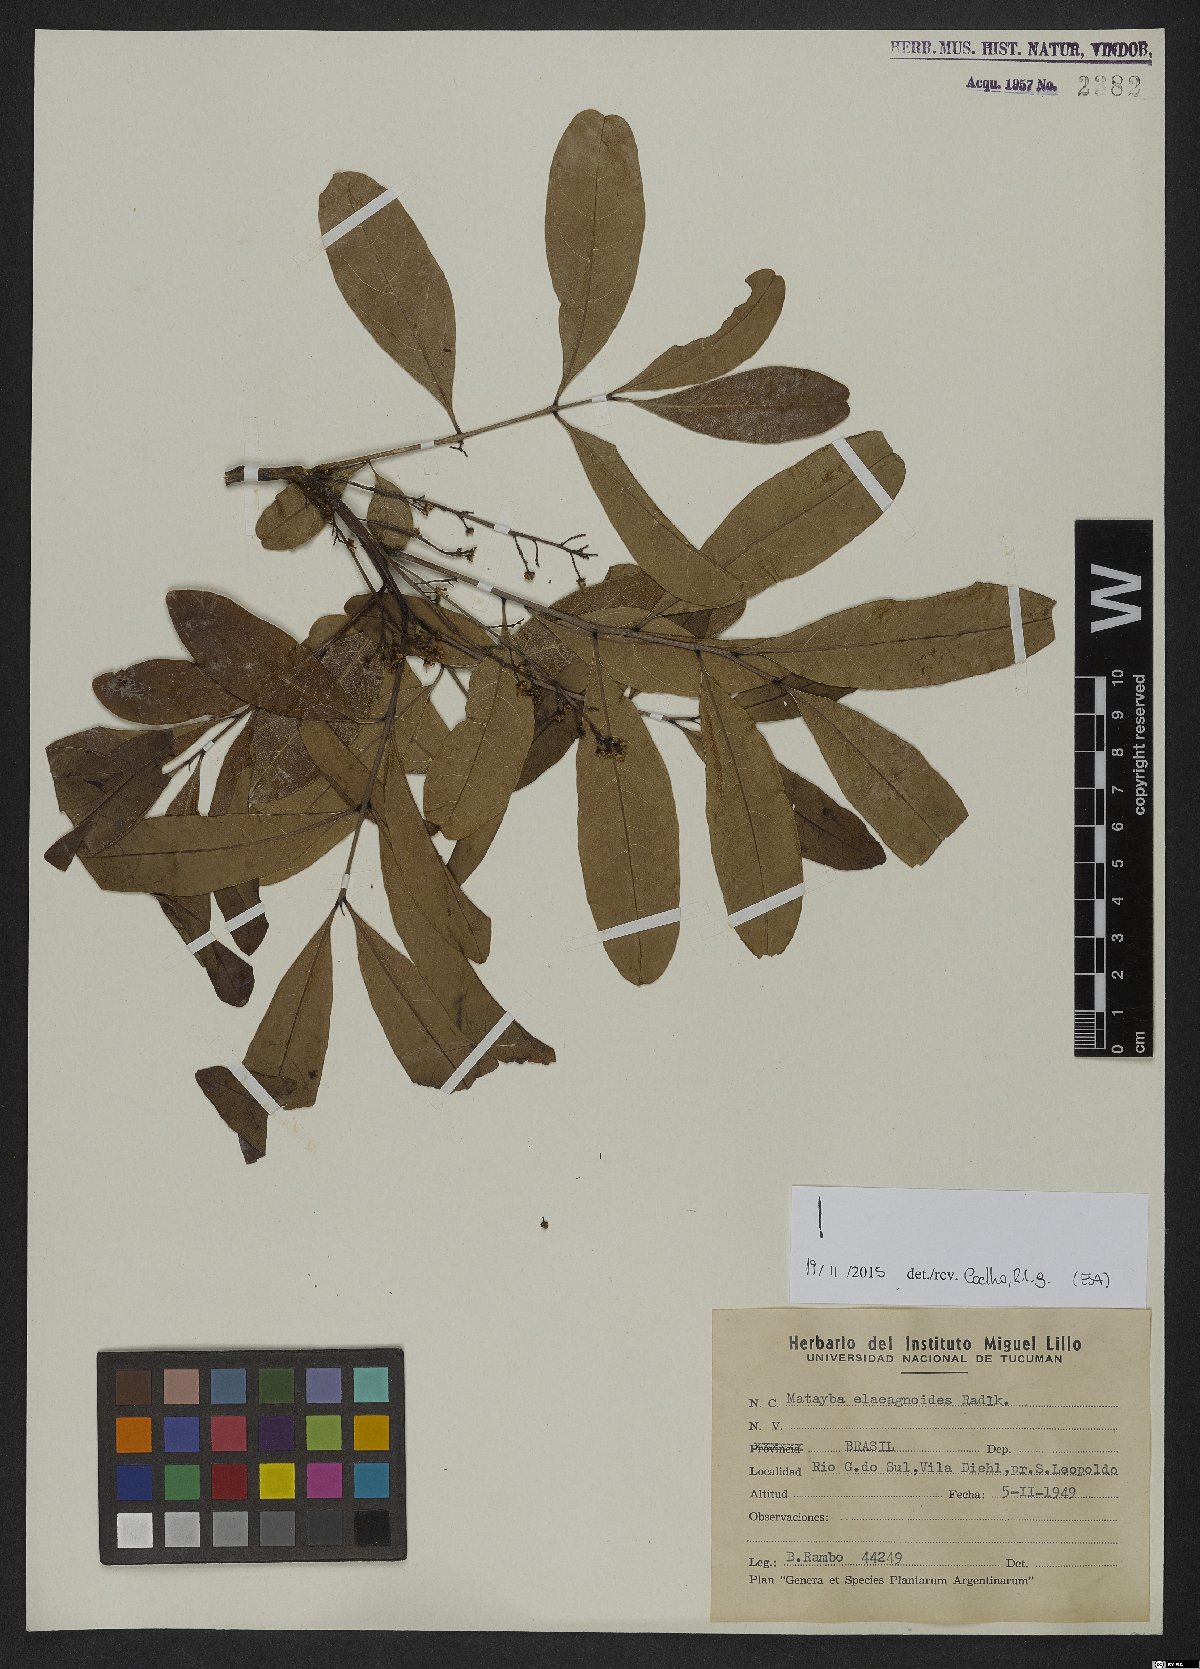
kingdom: Plantae
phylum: Tracheophyta
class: Magnoliopsida
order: Sapindales
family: Sapindaceae
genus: Matayba
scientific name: Matayba elaeagnoides
